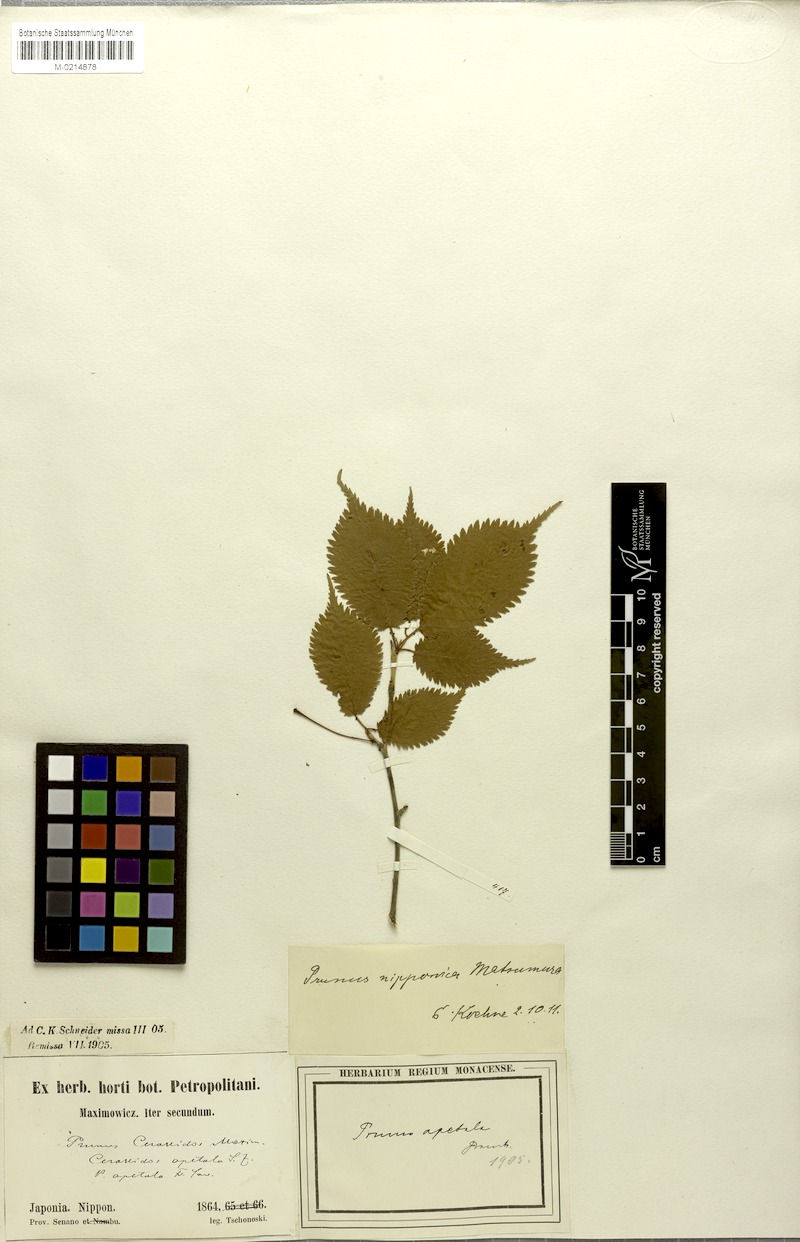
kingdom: Plantae
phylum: Tracheophyta
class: Magnoliopsida
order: Rosales
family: Rosaceae
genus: Prunus
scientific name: Prunus nipponica
